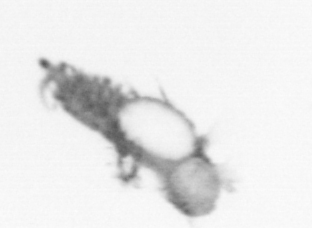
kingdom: Animalia
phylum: Annelida
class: Polychaeta
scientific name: Polychaeta
